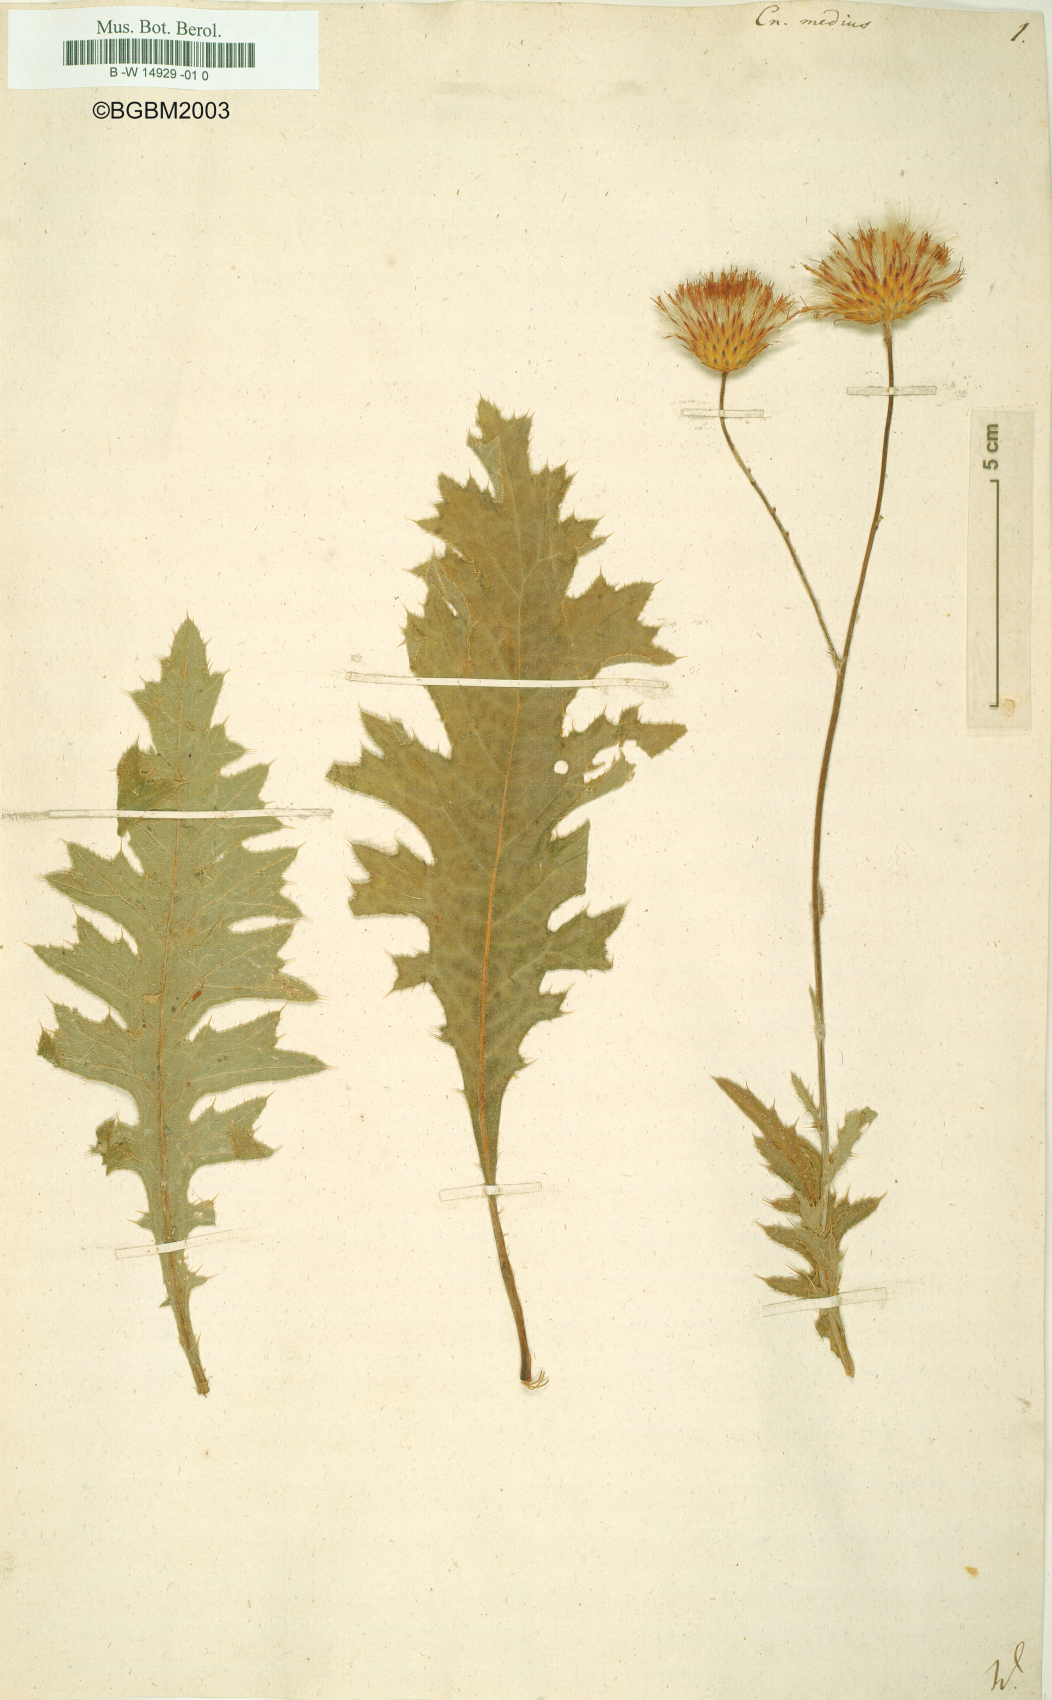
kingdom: Plantae
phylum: Tracheophyta
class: Magnoliopsida
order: Asterales
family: Asteraceae
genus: Centaurea
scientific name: Centaurea Cnicus medius
